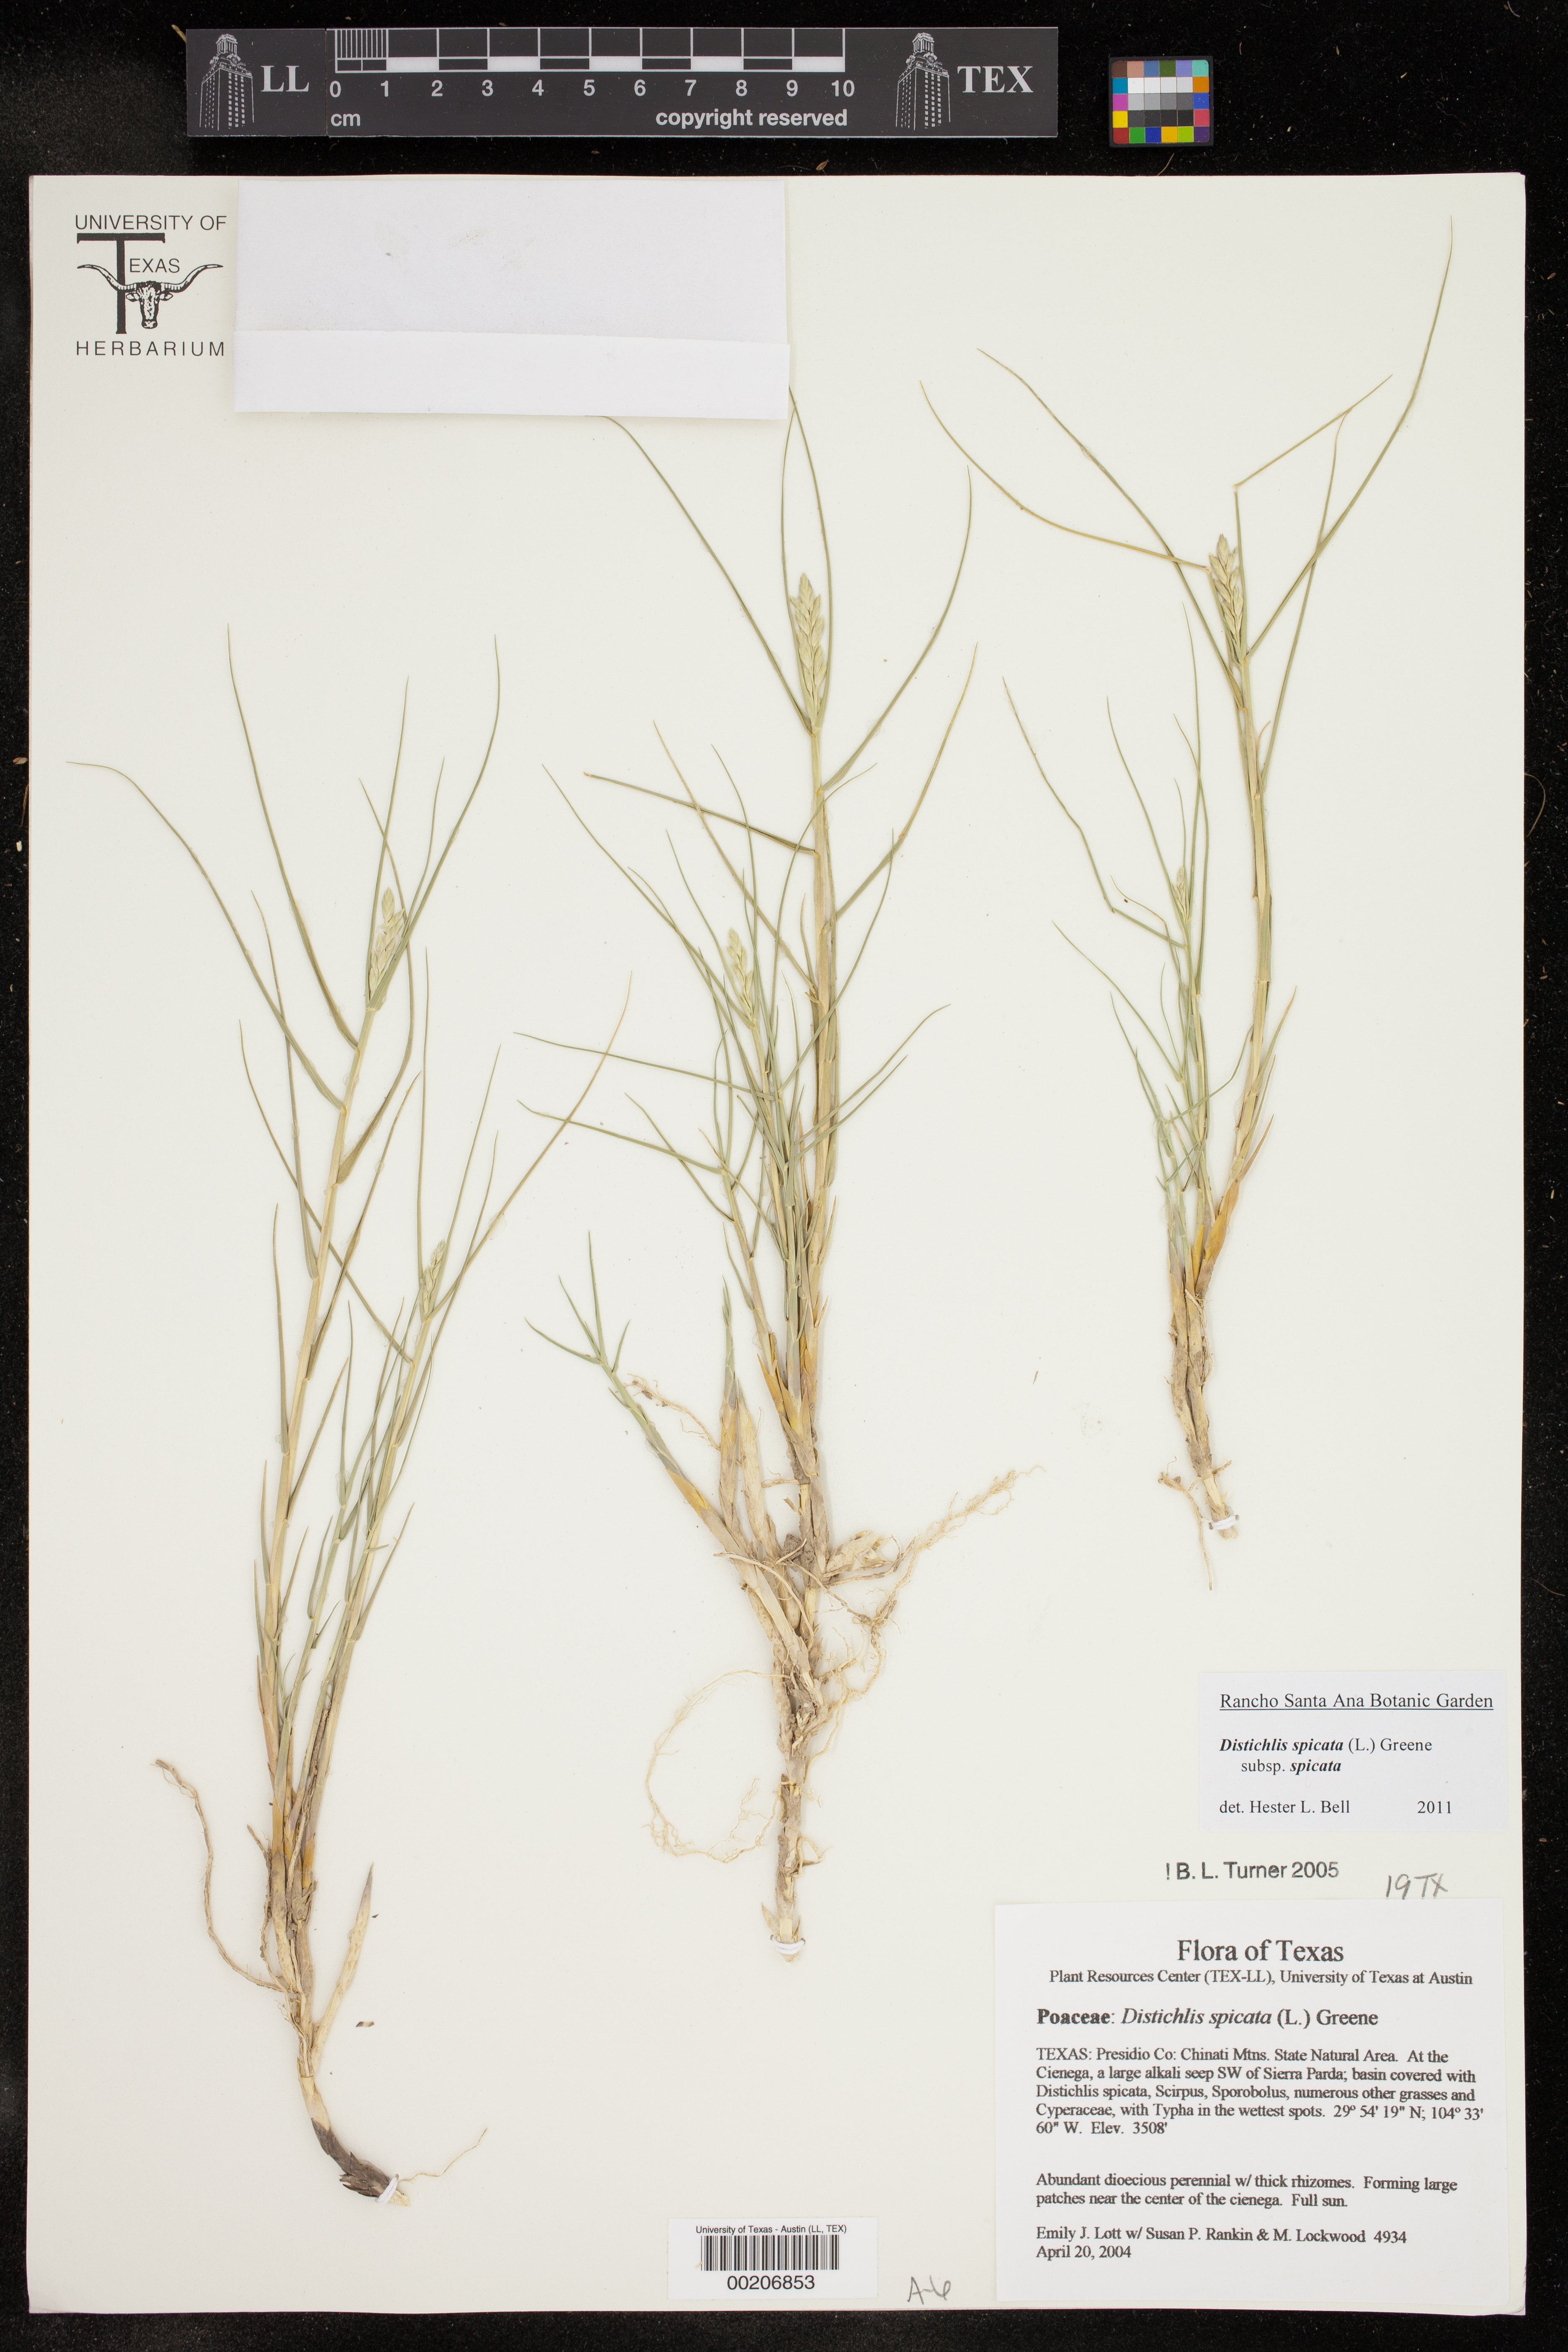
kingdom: Plantae
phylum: Tracheophyta
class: Liliopsida
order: Poales
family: Poaceae
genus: Distichlis
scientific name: Distichlis spicata
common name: Saltgrass
